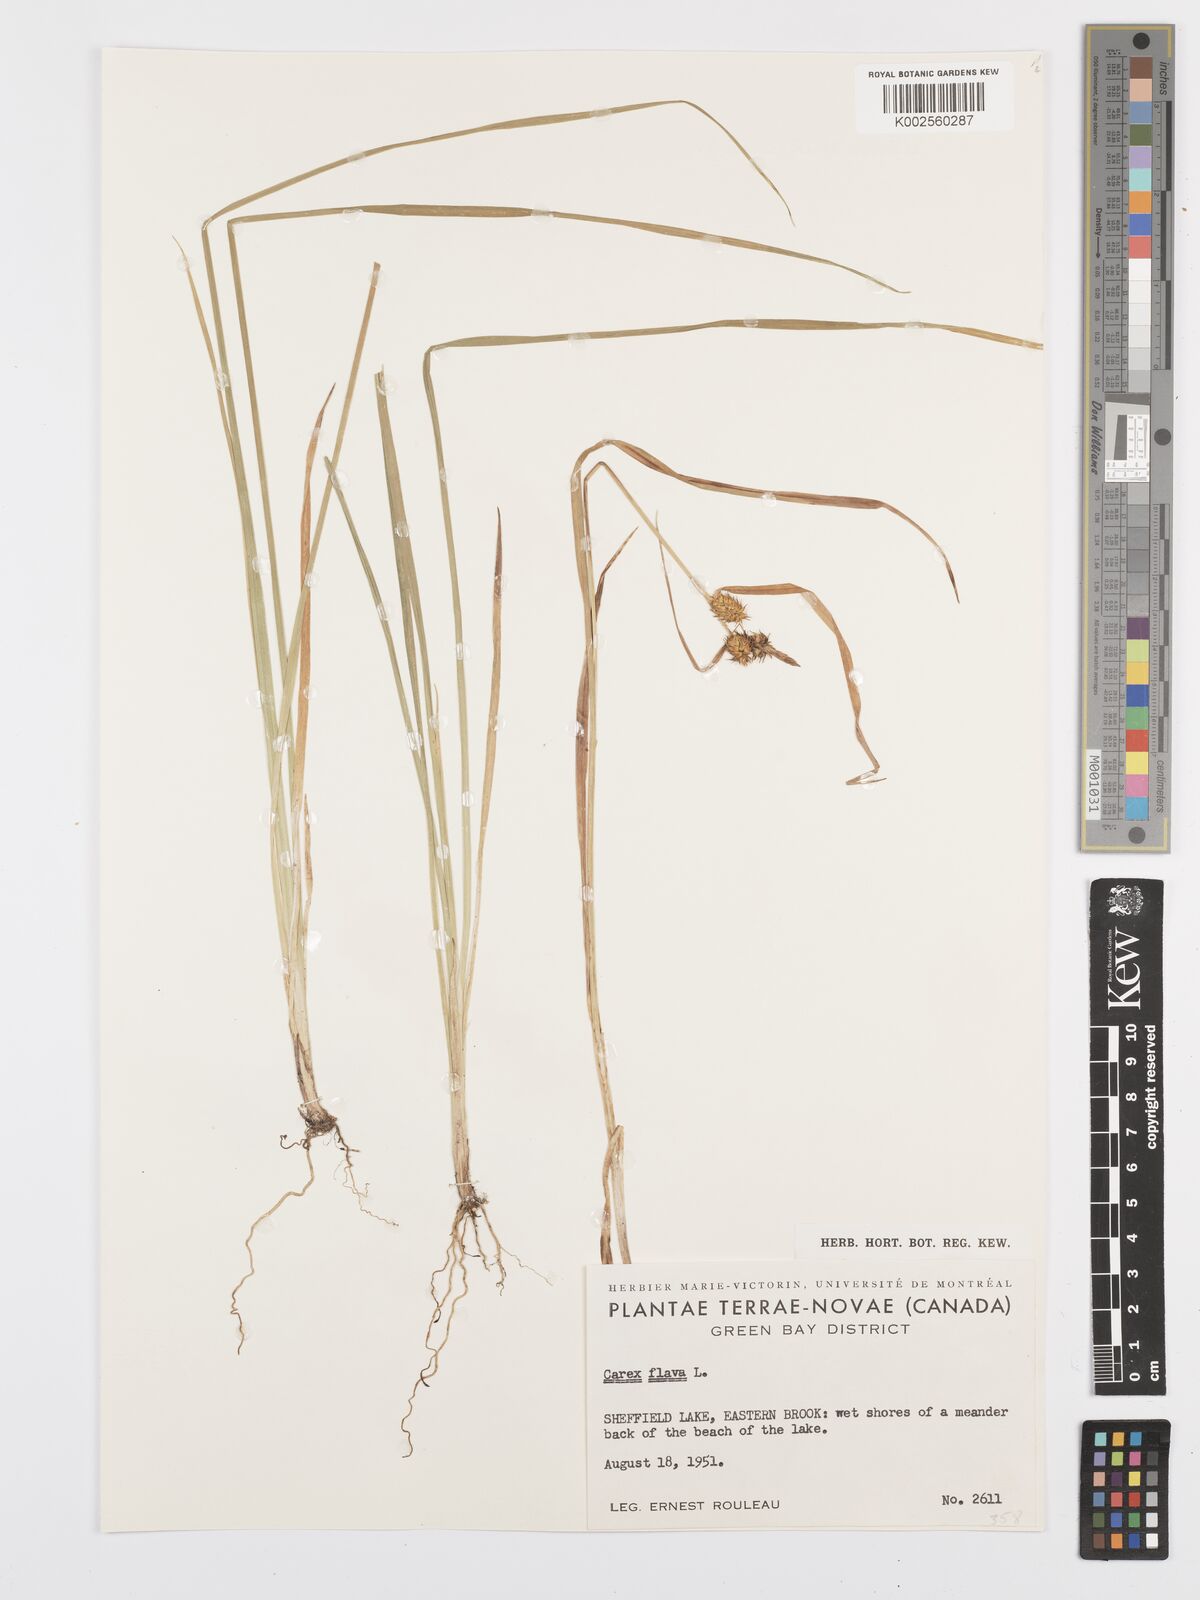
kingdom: Plantae
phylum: Tracheophyta
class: Liliopsida
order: Poales
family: Cyperaceae
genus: Carex
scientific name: Carex flava
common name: Large yellow-sedge
